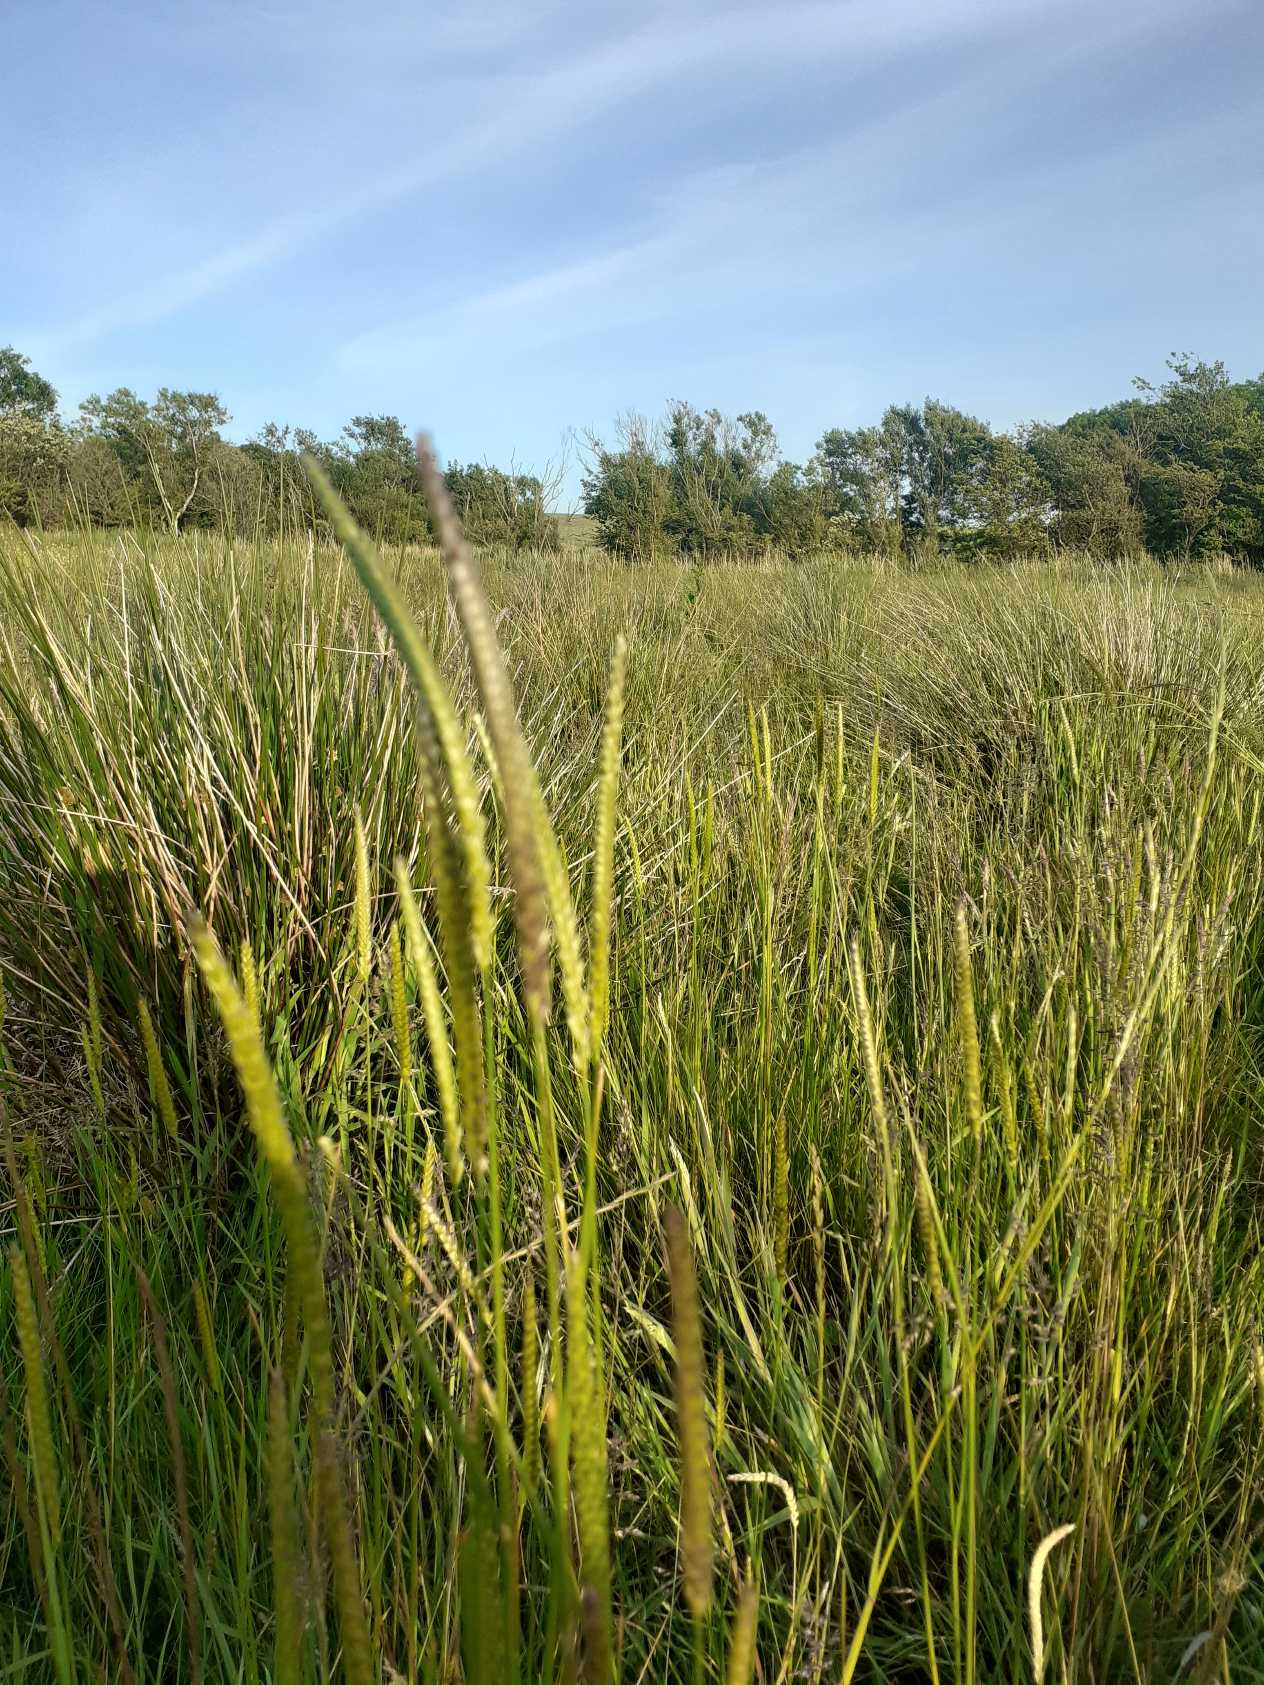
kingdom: Plantae
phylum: Tracheophyta
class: Liliopsida
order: Poales
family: Poaceae
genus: Cynosurus
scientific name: Cynosurus cristatus
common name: Kamgræs
